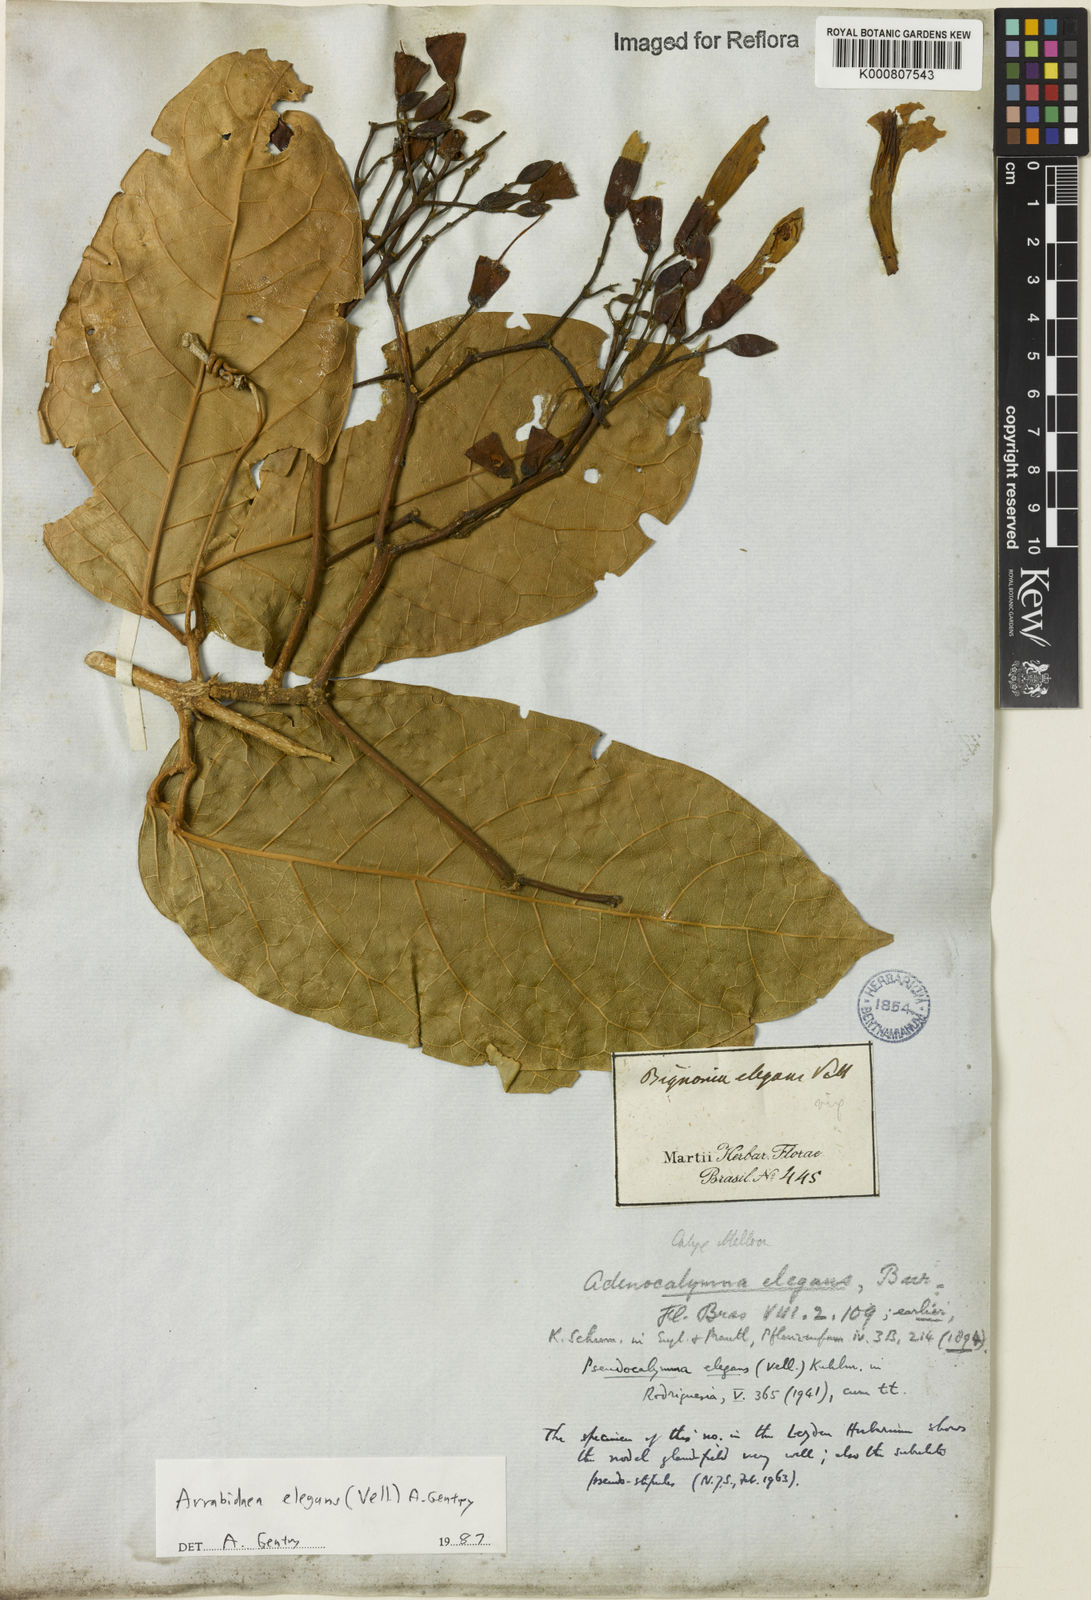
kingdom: Plantae
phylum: Tracheophyta
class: Magnoliopsida
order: Lamiales
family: Bignoniaceae
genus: Fridericia
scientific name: Fridericia elegans
